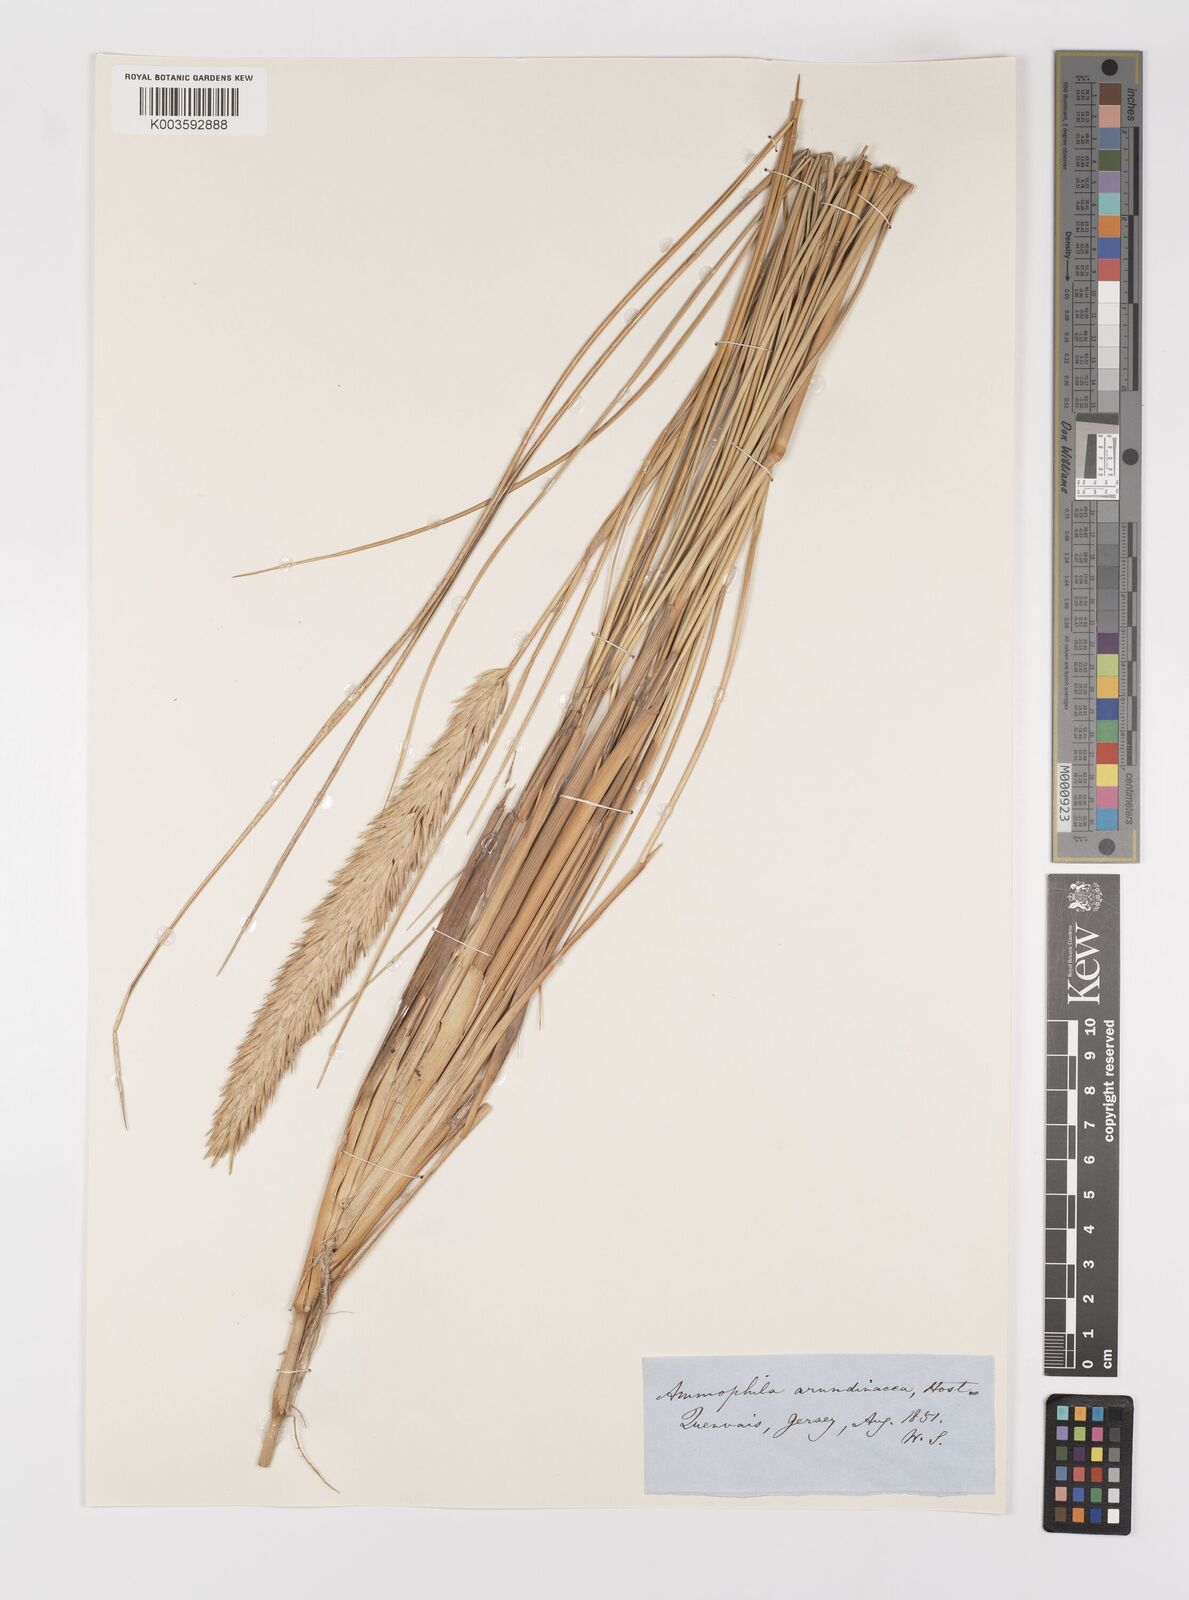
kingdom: Plantae
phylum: Tracheophyta
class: Liliopsida
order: Poales
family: Poaceae
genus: Calamagrostis
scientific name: Calamagrostis arenaria
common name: European beachgrass
